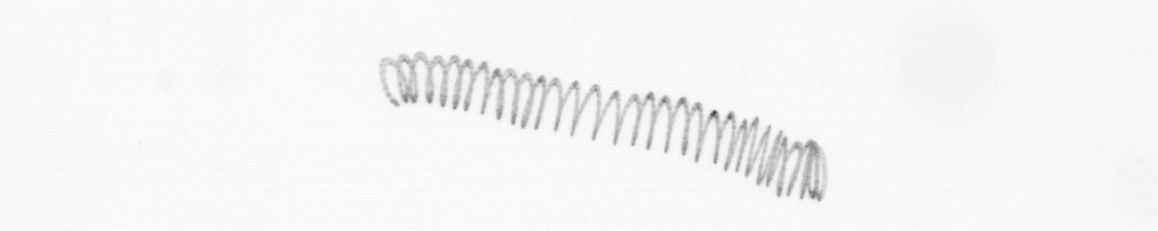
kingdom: Chromista
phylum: Ochrophyta
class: Bacillariophyceae
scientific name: Bacillariophyceae
